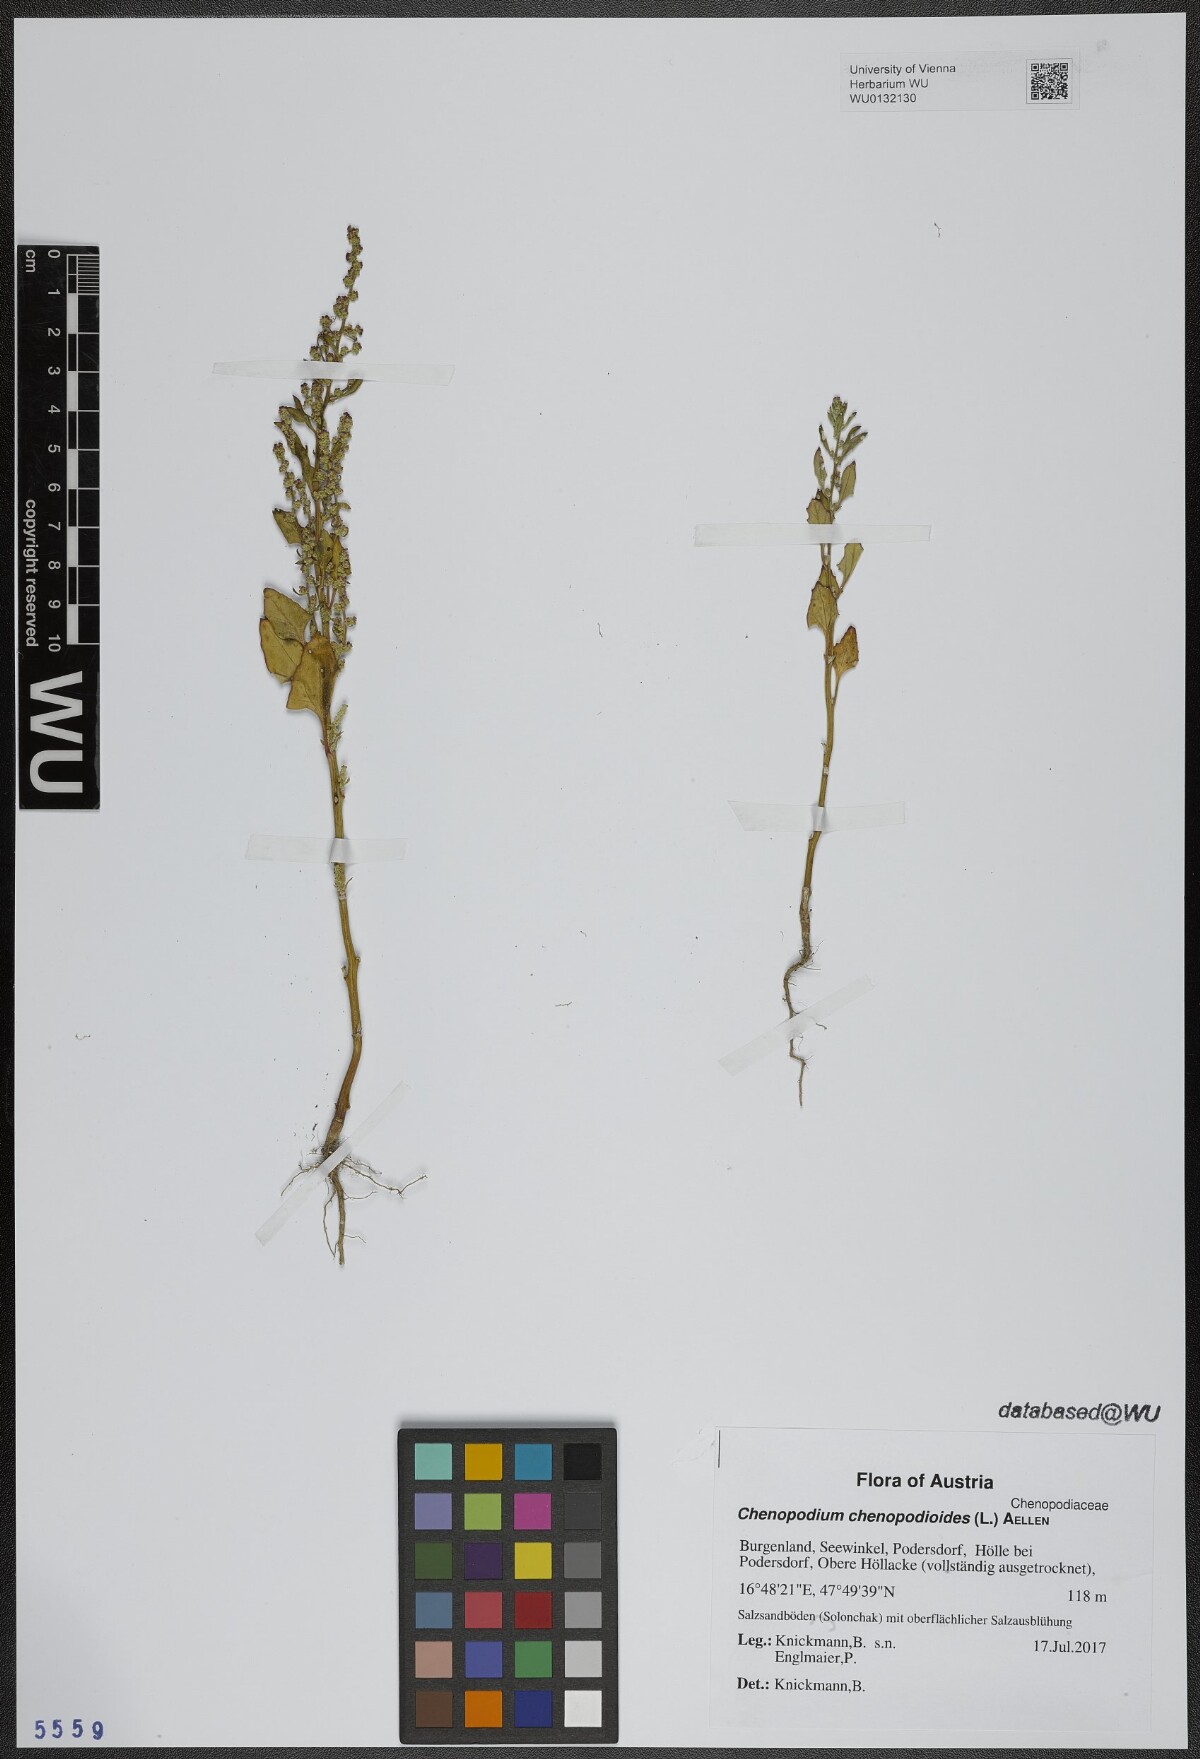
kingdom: Plantae
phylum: Tracheophyta
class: Magnoliopsida
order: Caryophyllales
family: Amaranthaceae
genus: Oxybasis
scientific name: Oxybasis chenopodioides
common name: Saltmarsh goosefoot
